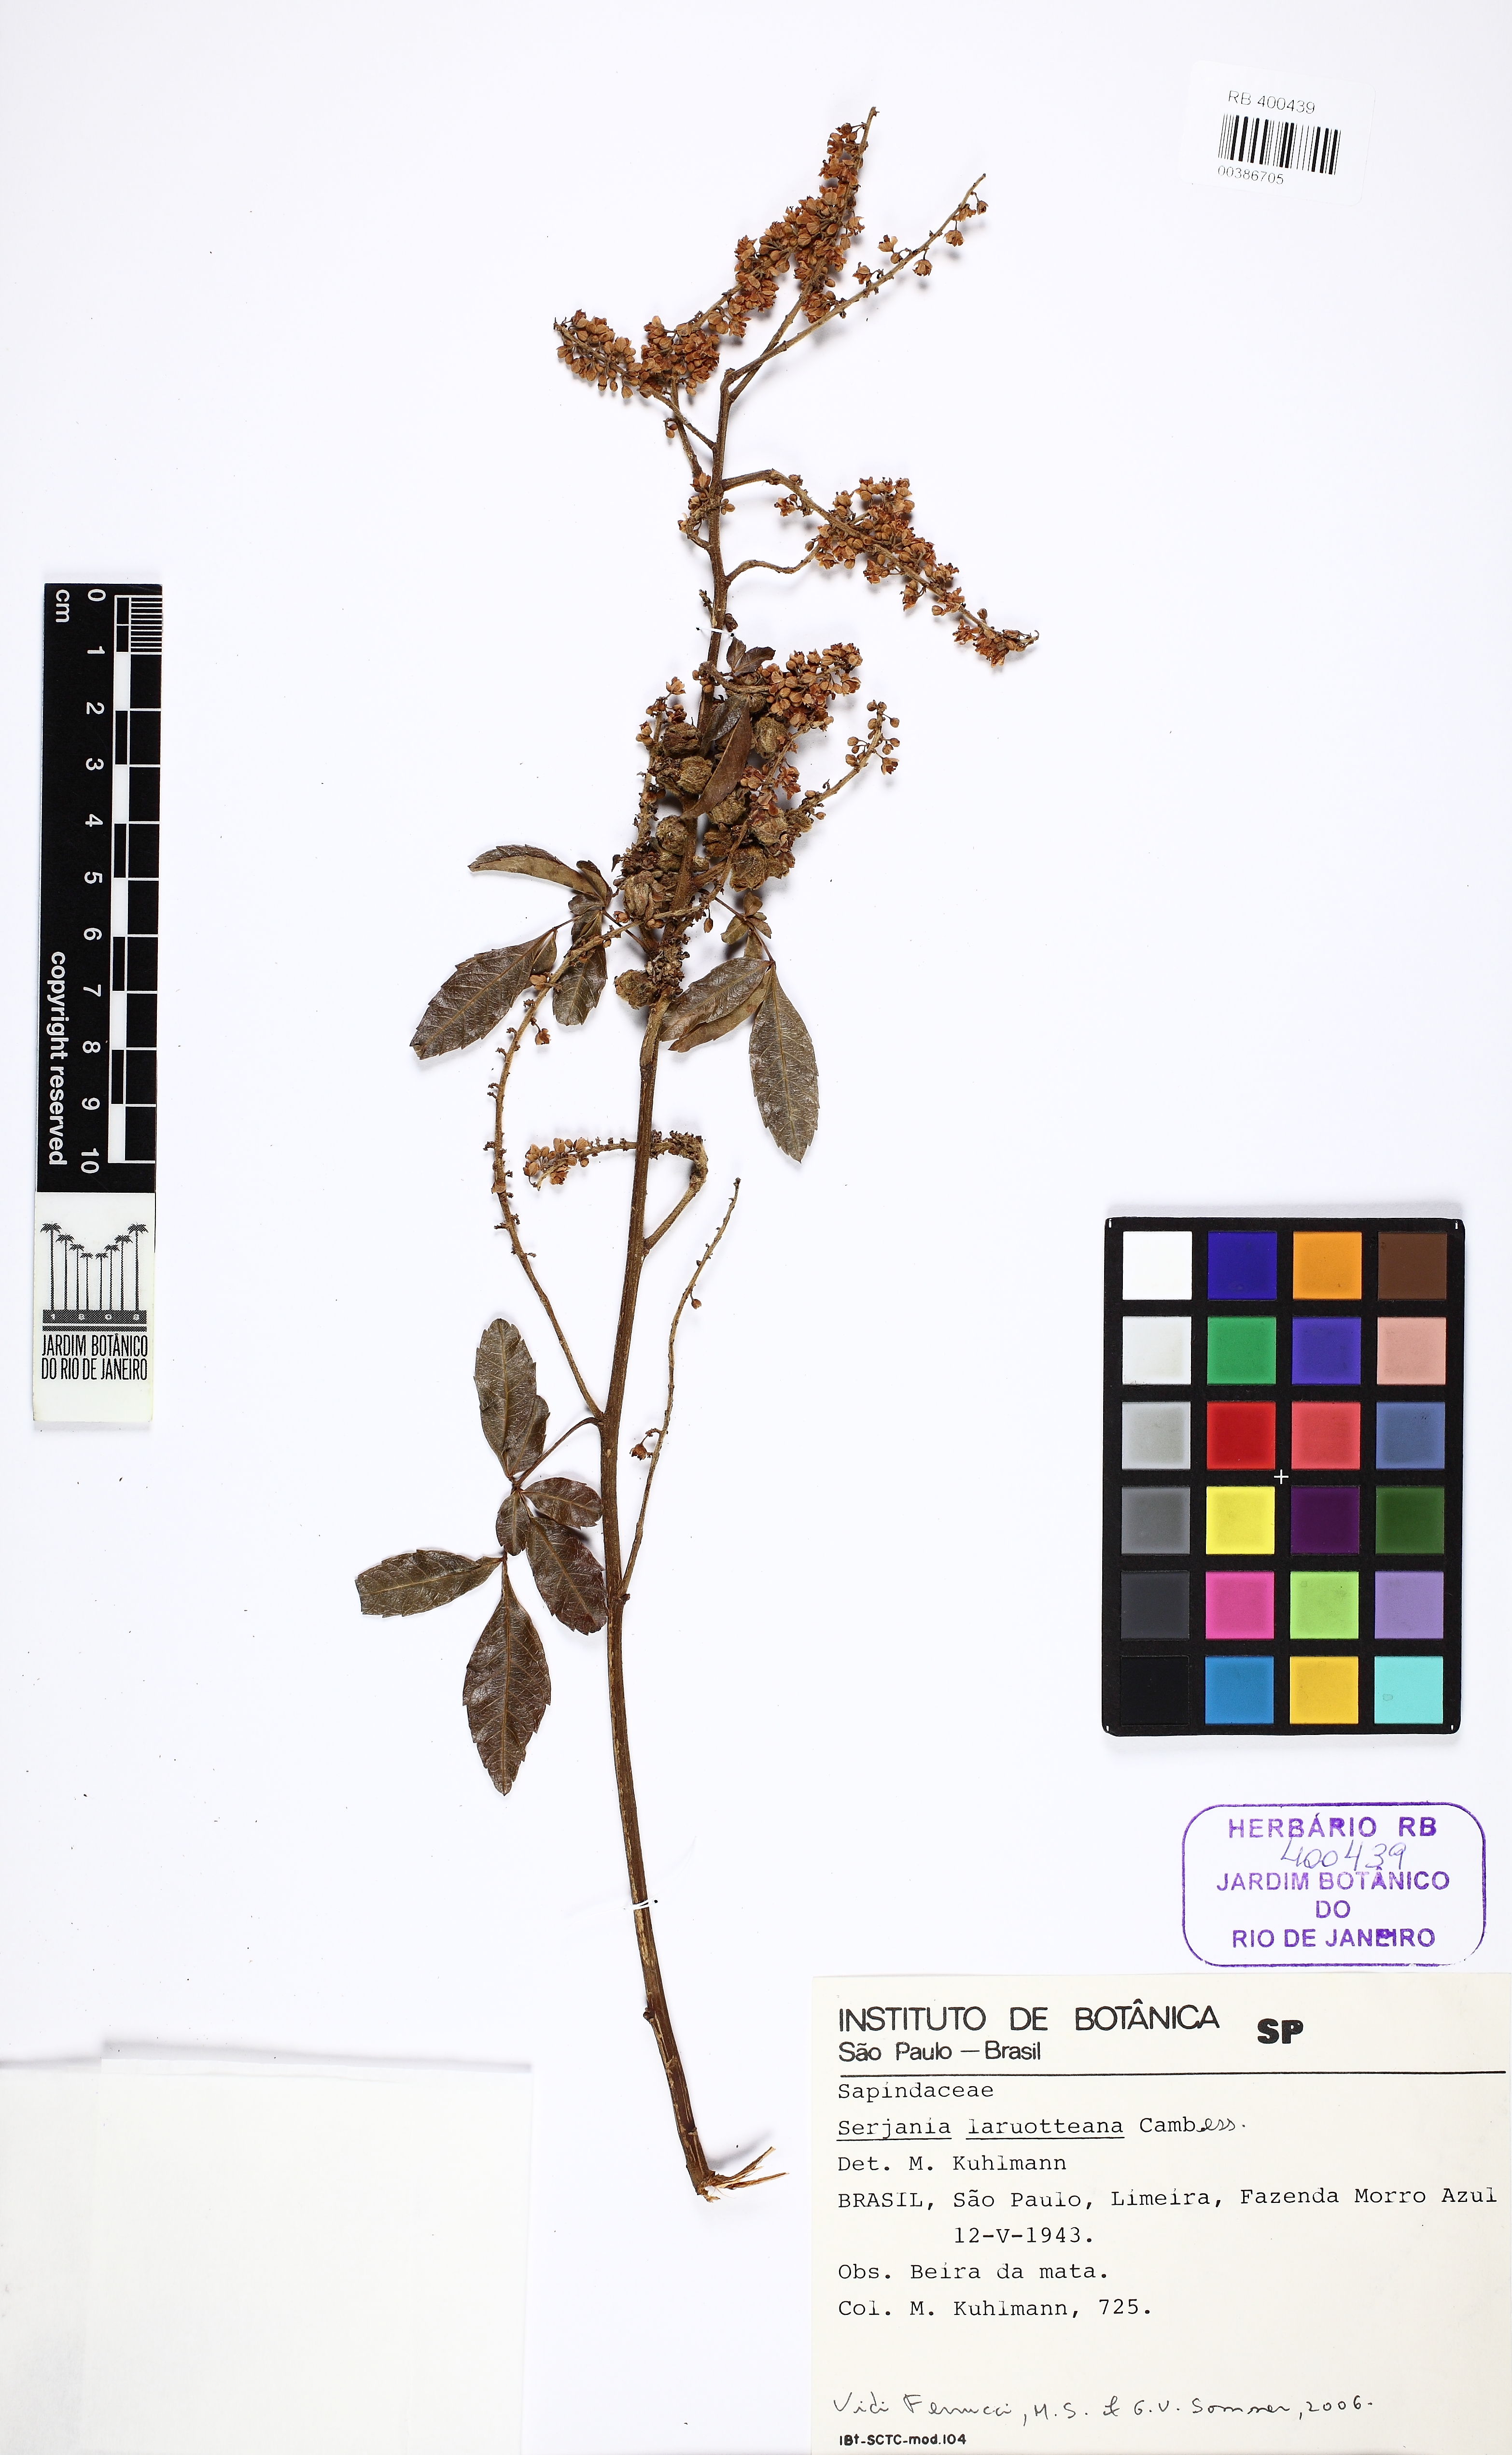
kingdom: Plantae
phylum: Tracheophyta
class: Magnoliopsida
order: Sapindales
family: Sapindaceae
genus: Serjania
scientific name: Serjania laruotteana
